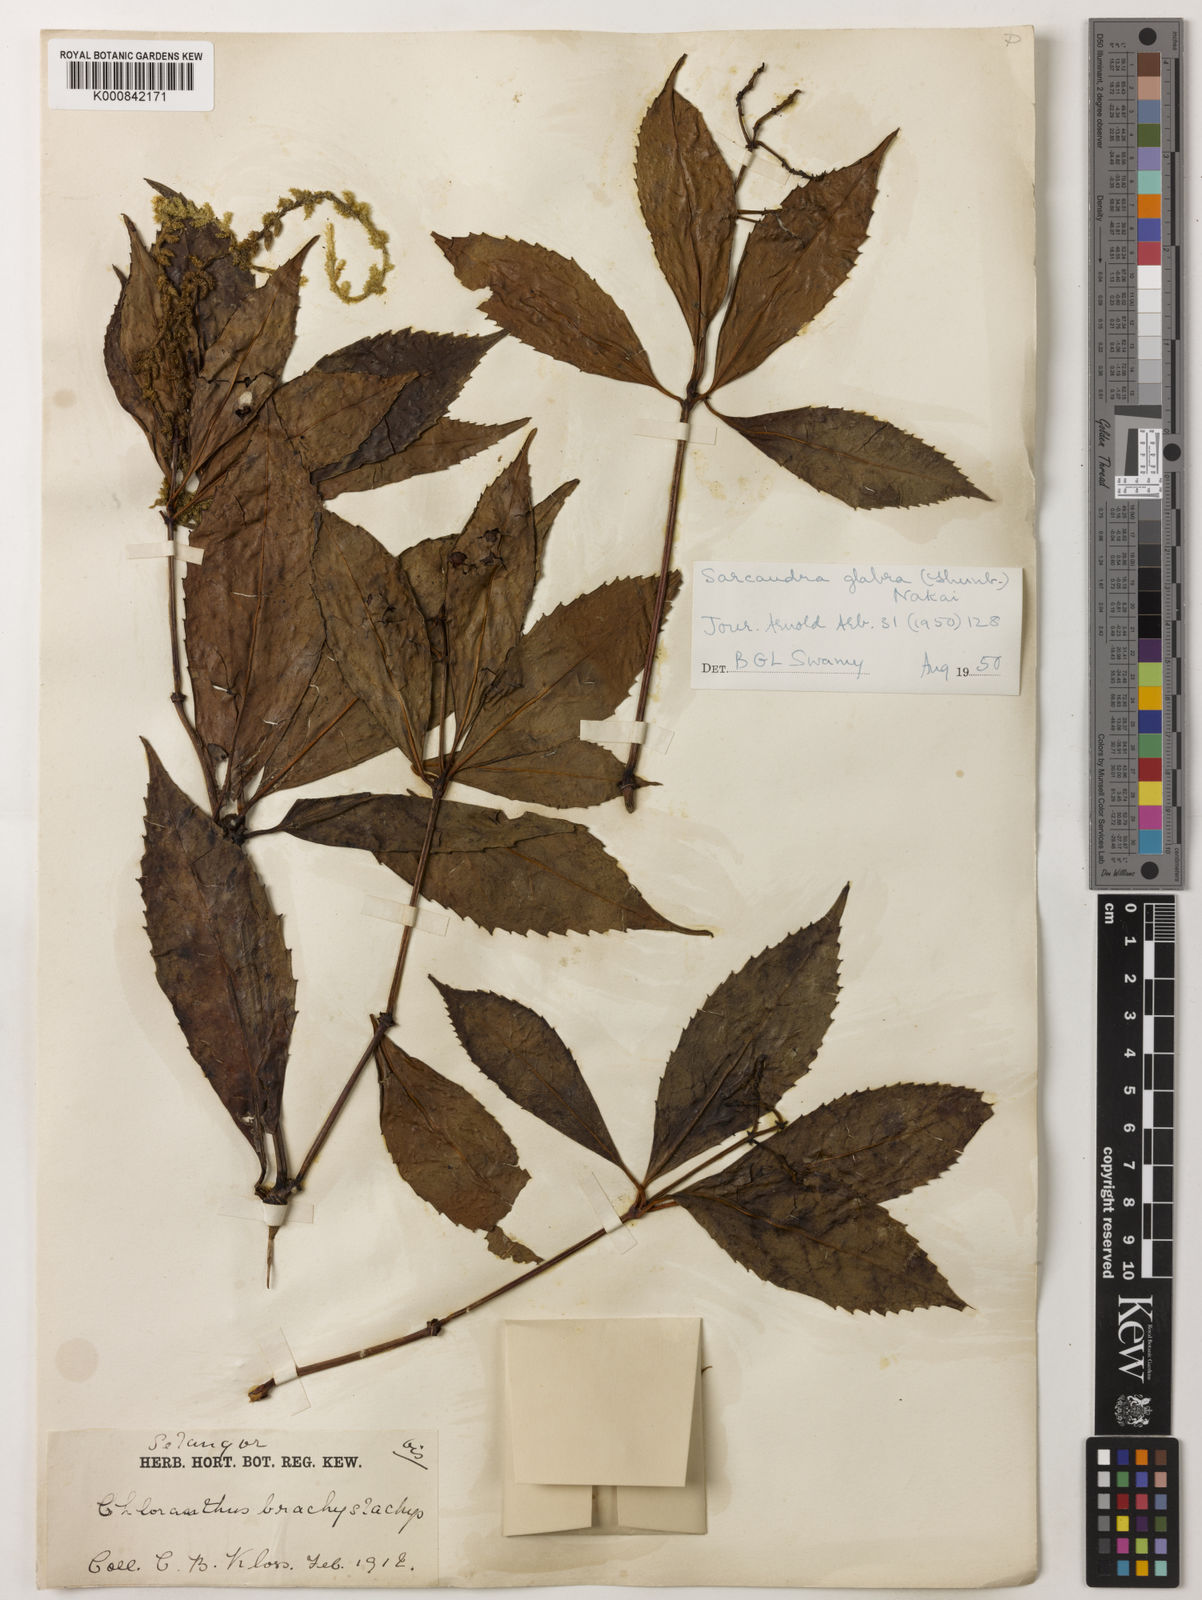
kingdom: Plantae
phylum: Tracheophyta
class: Magnoliopsida
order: Chloranthales
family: Chloranthaceae
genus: Sarcandra
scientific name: Sarcandra glabra
